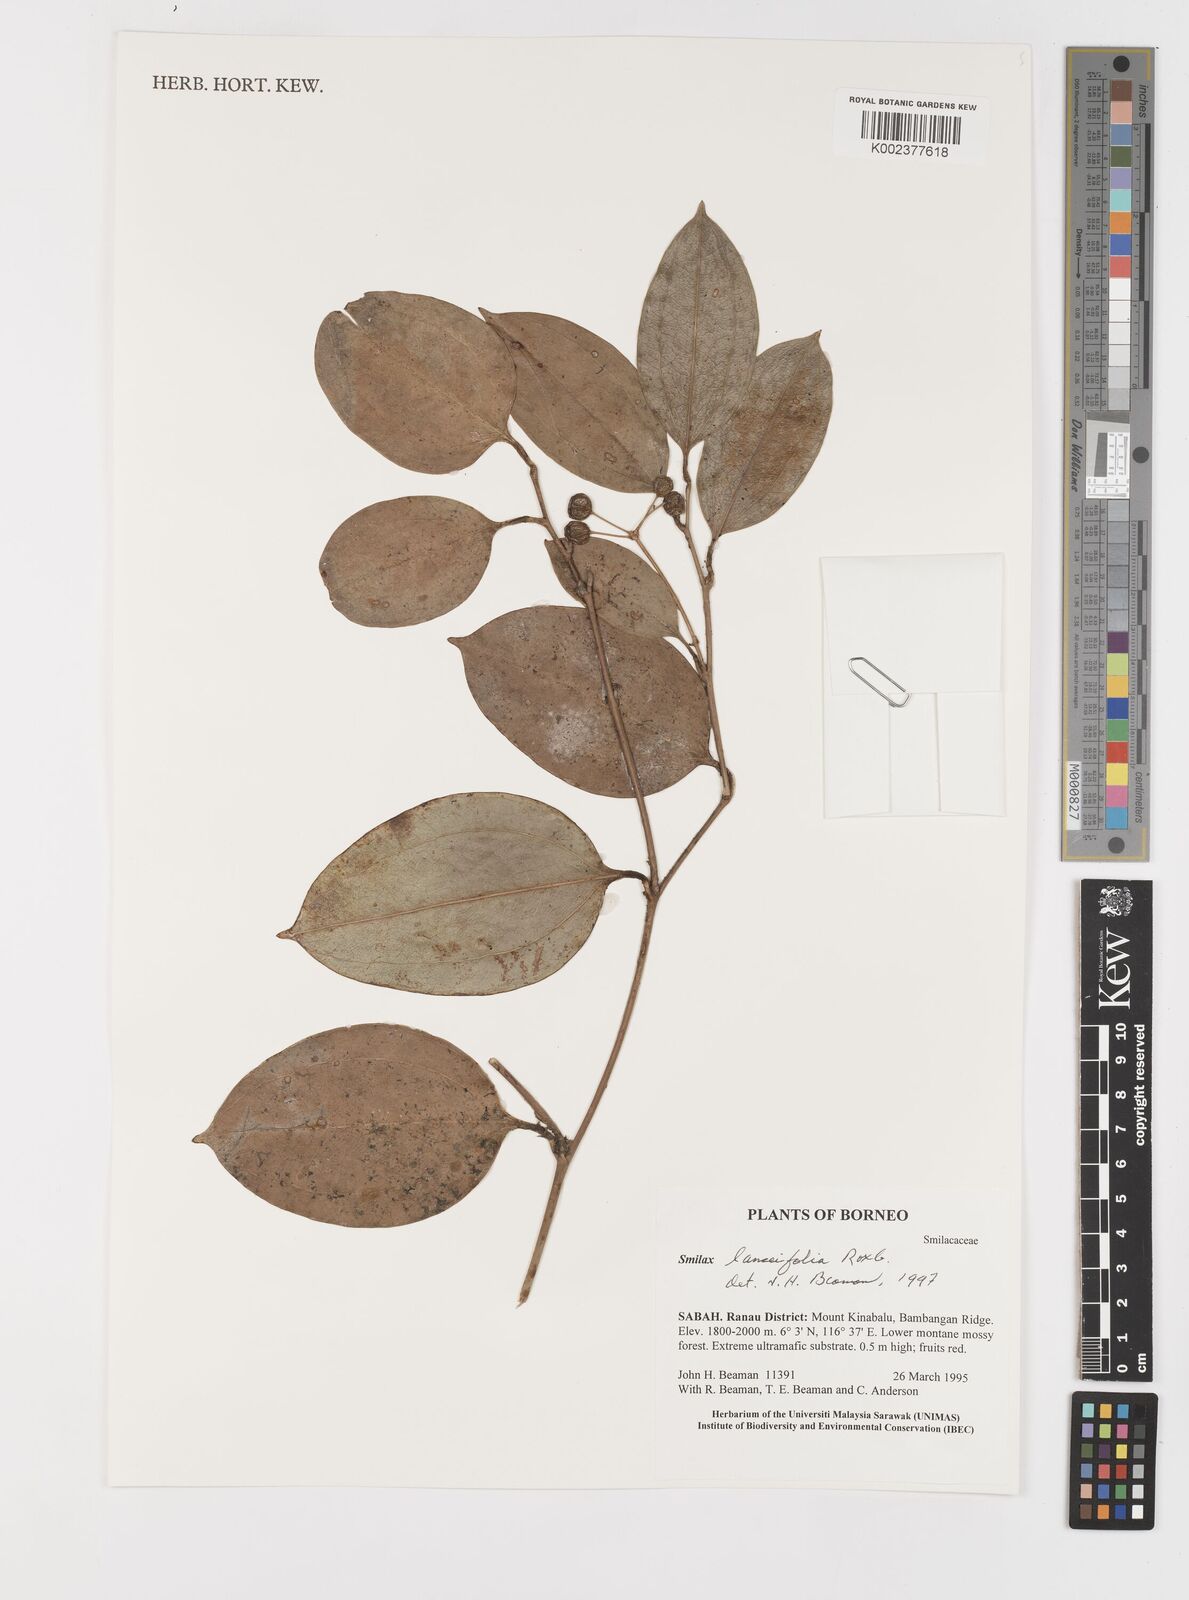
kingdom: Plantae
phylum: Tracheophyta
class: Liliopsida
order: Liliales
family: Smilacaceae
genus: Smilax
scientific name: Smilax lanceifolia
